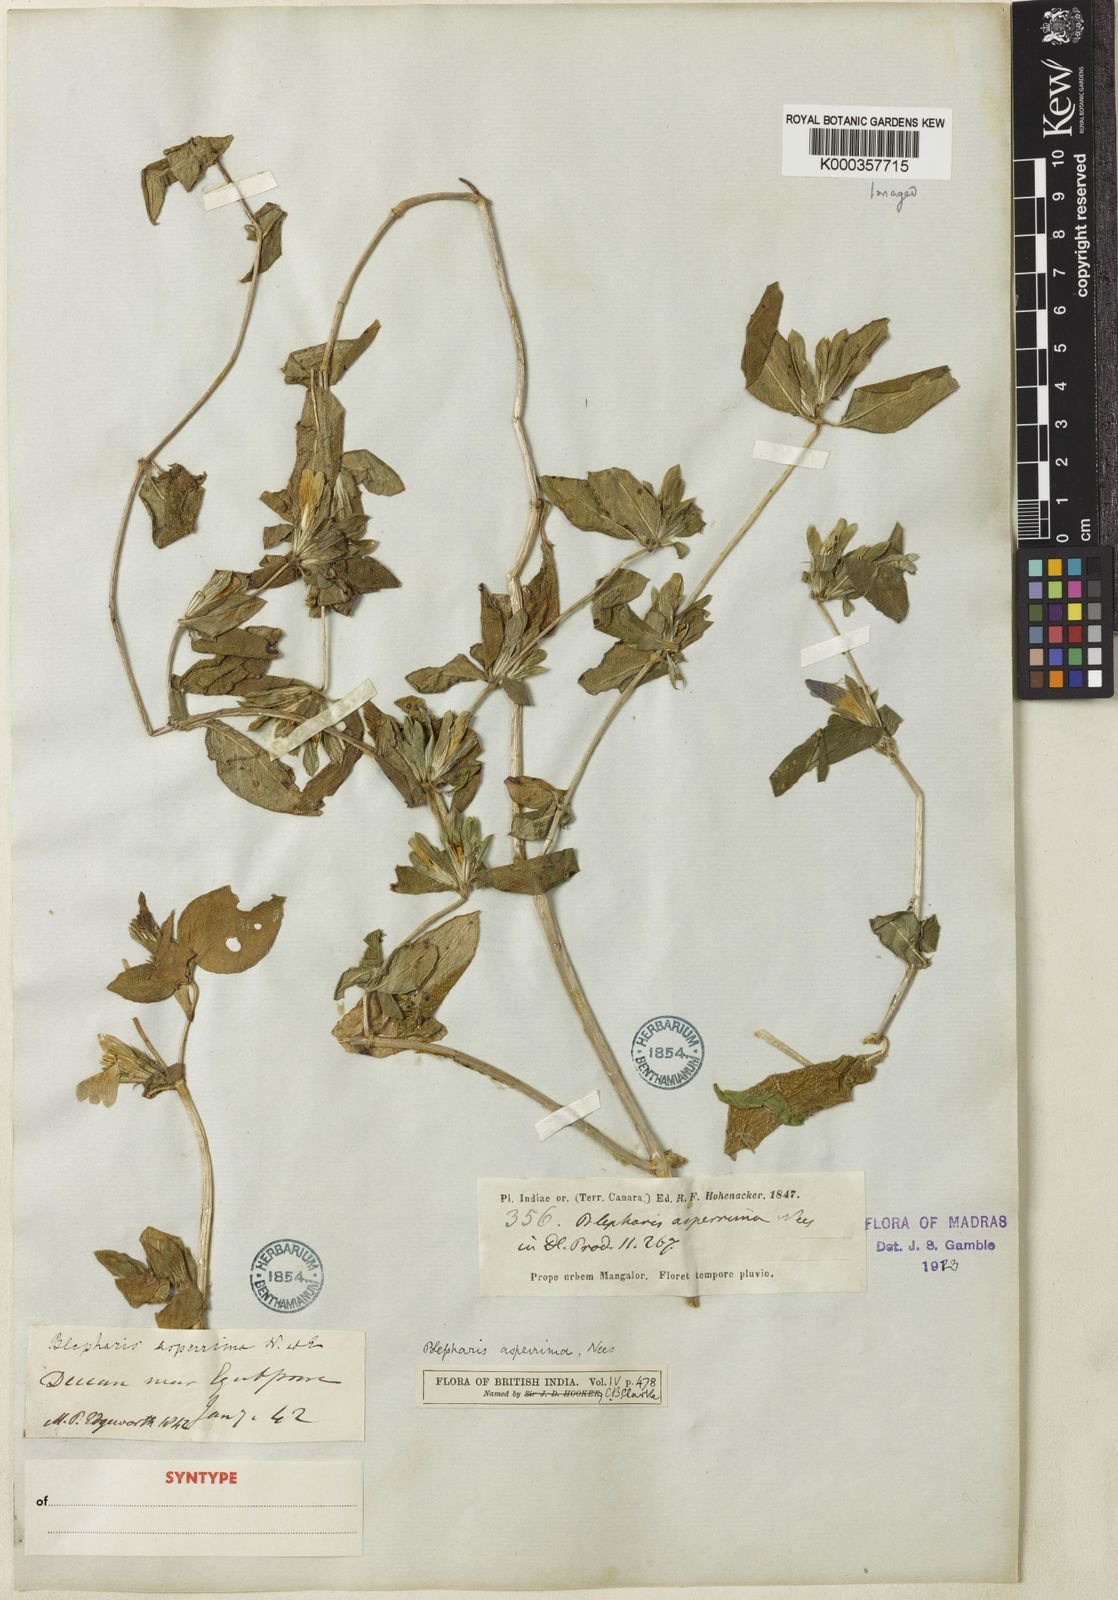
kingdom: Plantae
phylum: Tracheophyta
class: Magnoliopsida
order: Lamiales
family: Acanthaceae
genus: Cynarospermum
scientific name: Cynarospermum asperrimum
